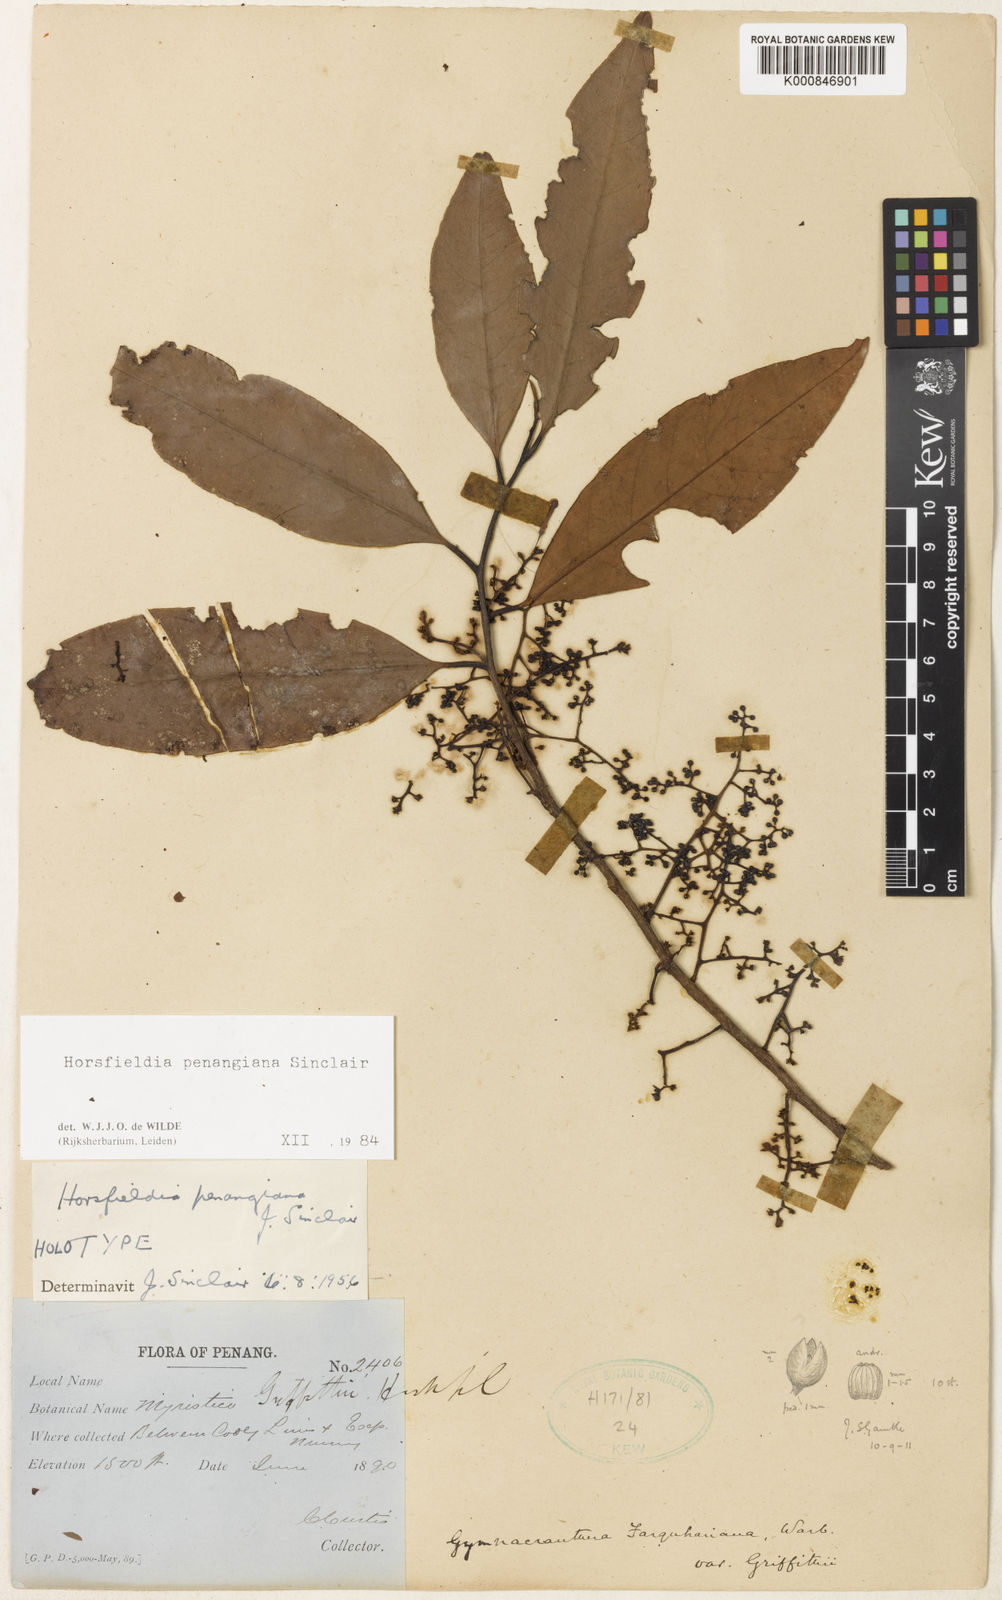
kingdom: Plantae
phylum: Tracheophyta
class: Magnoliopsida
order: Magnoliales
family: Myristicaceae
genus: Horsfieldia
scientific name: Horsfieldia penangiana
